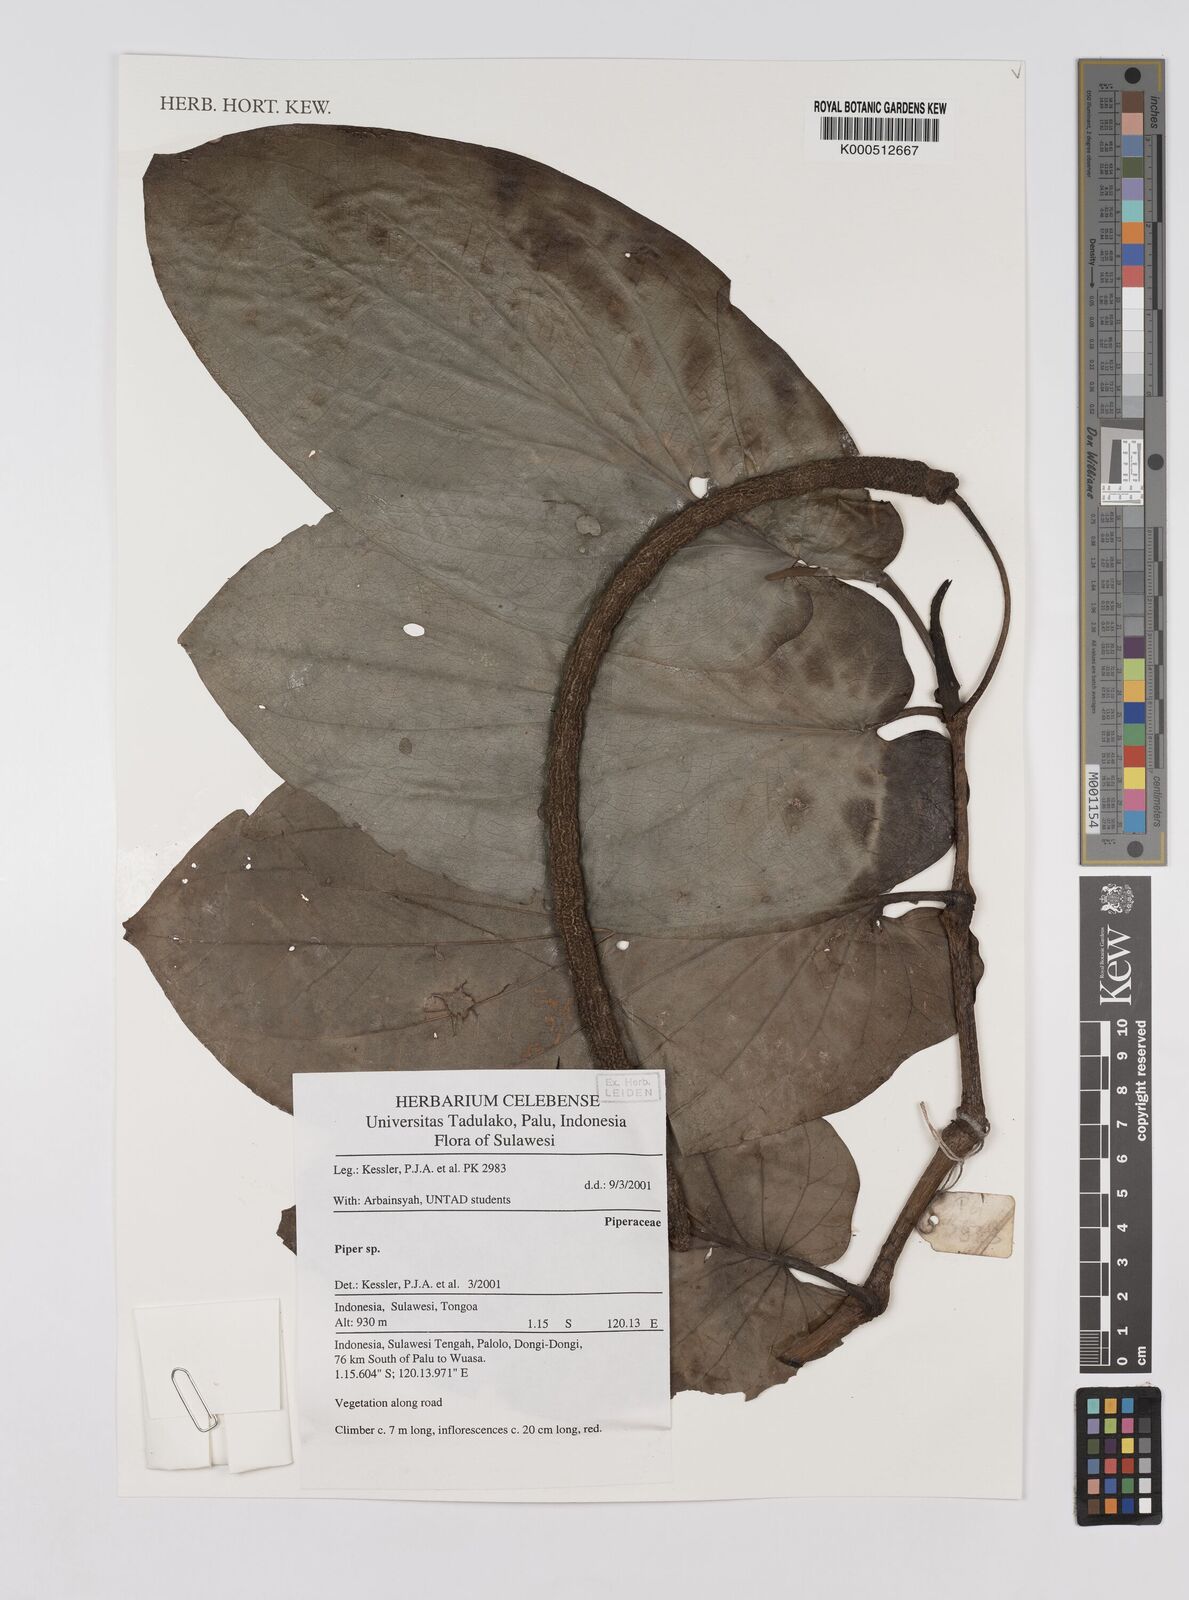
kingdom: Plantae
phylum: Tracheophyta
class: Magnoliopsida
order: Piperales
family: Piperaceae
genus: Piper
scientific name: Piper
